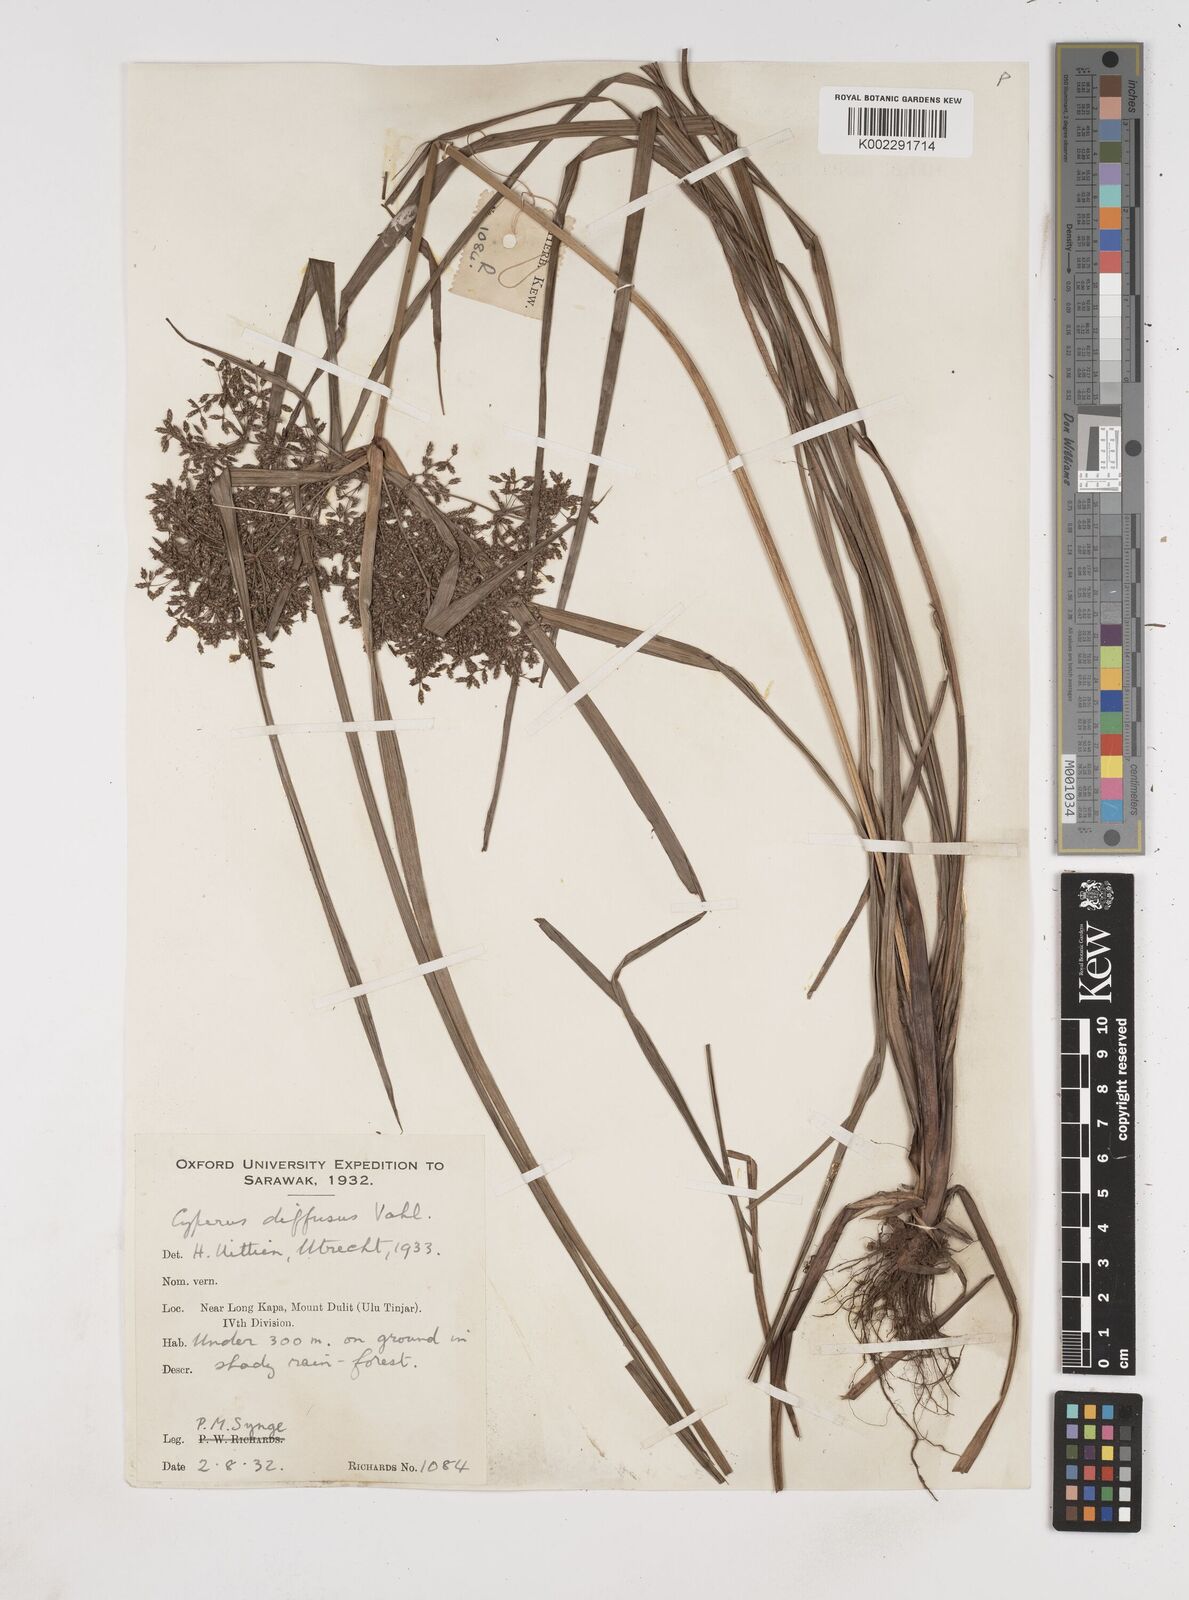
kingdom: Plantae
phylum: Tracheophyta
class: Liliopsida
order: Poales
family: Cyperaceae
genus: Cyperus
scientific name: Cyperus diffusus
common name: Dwarf umbrella grass
